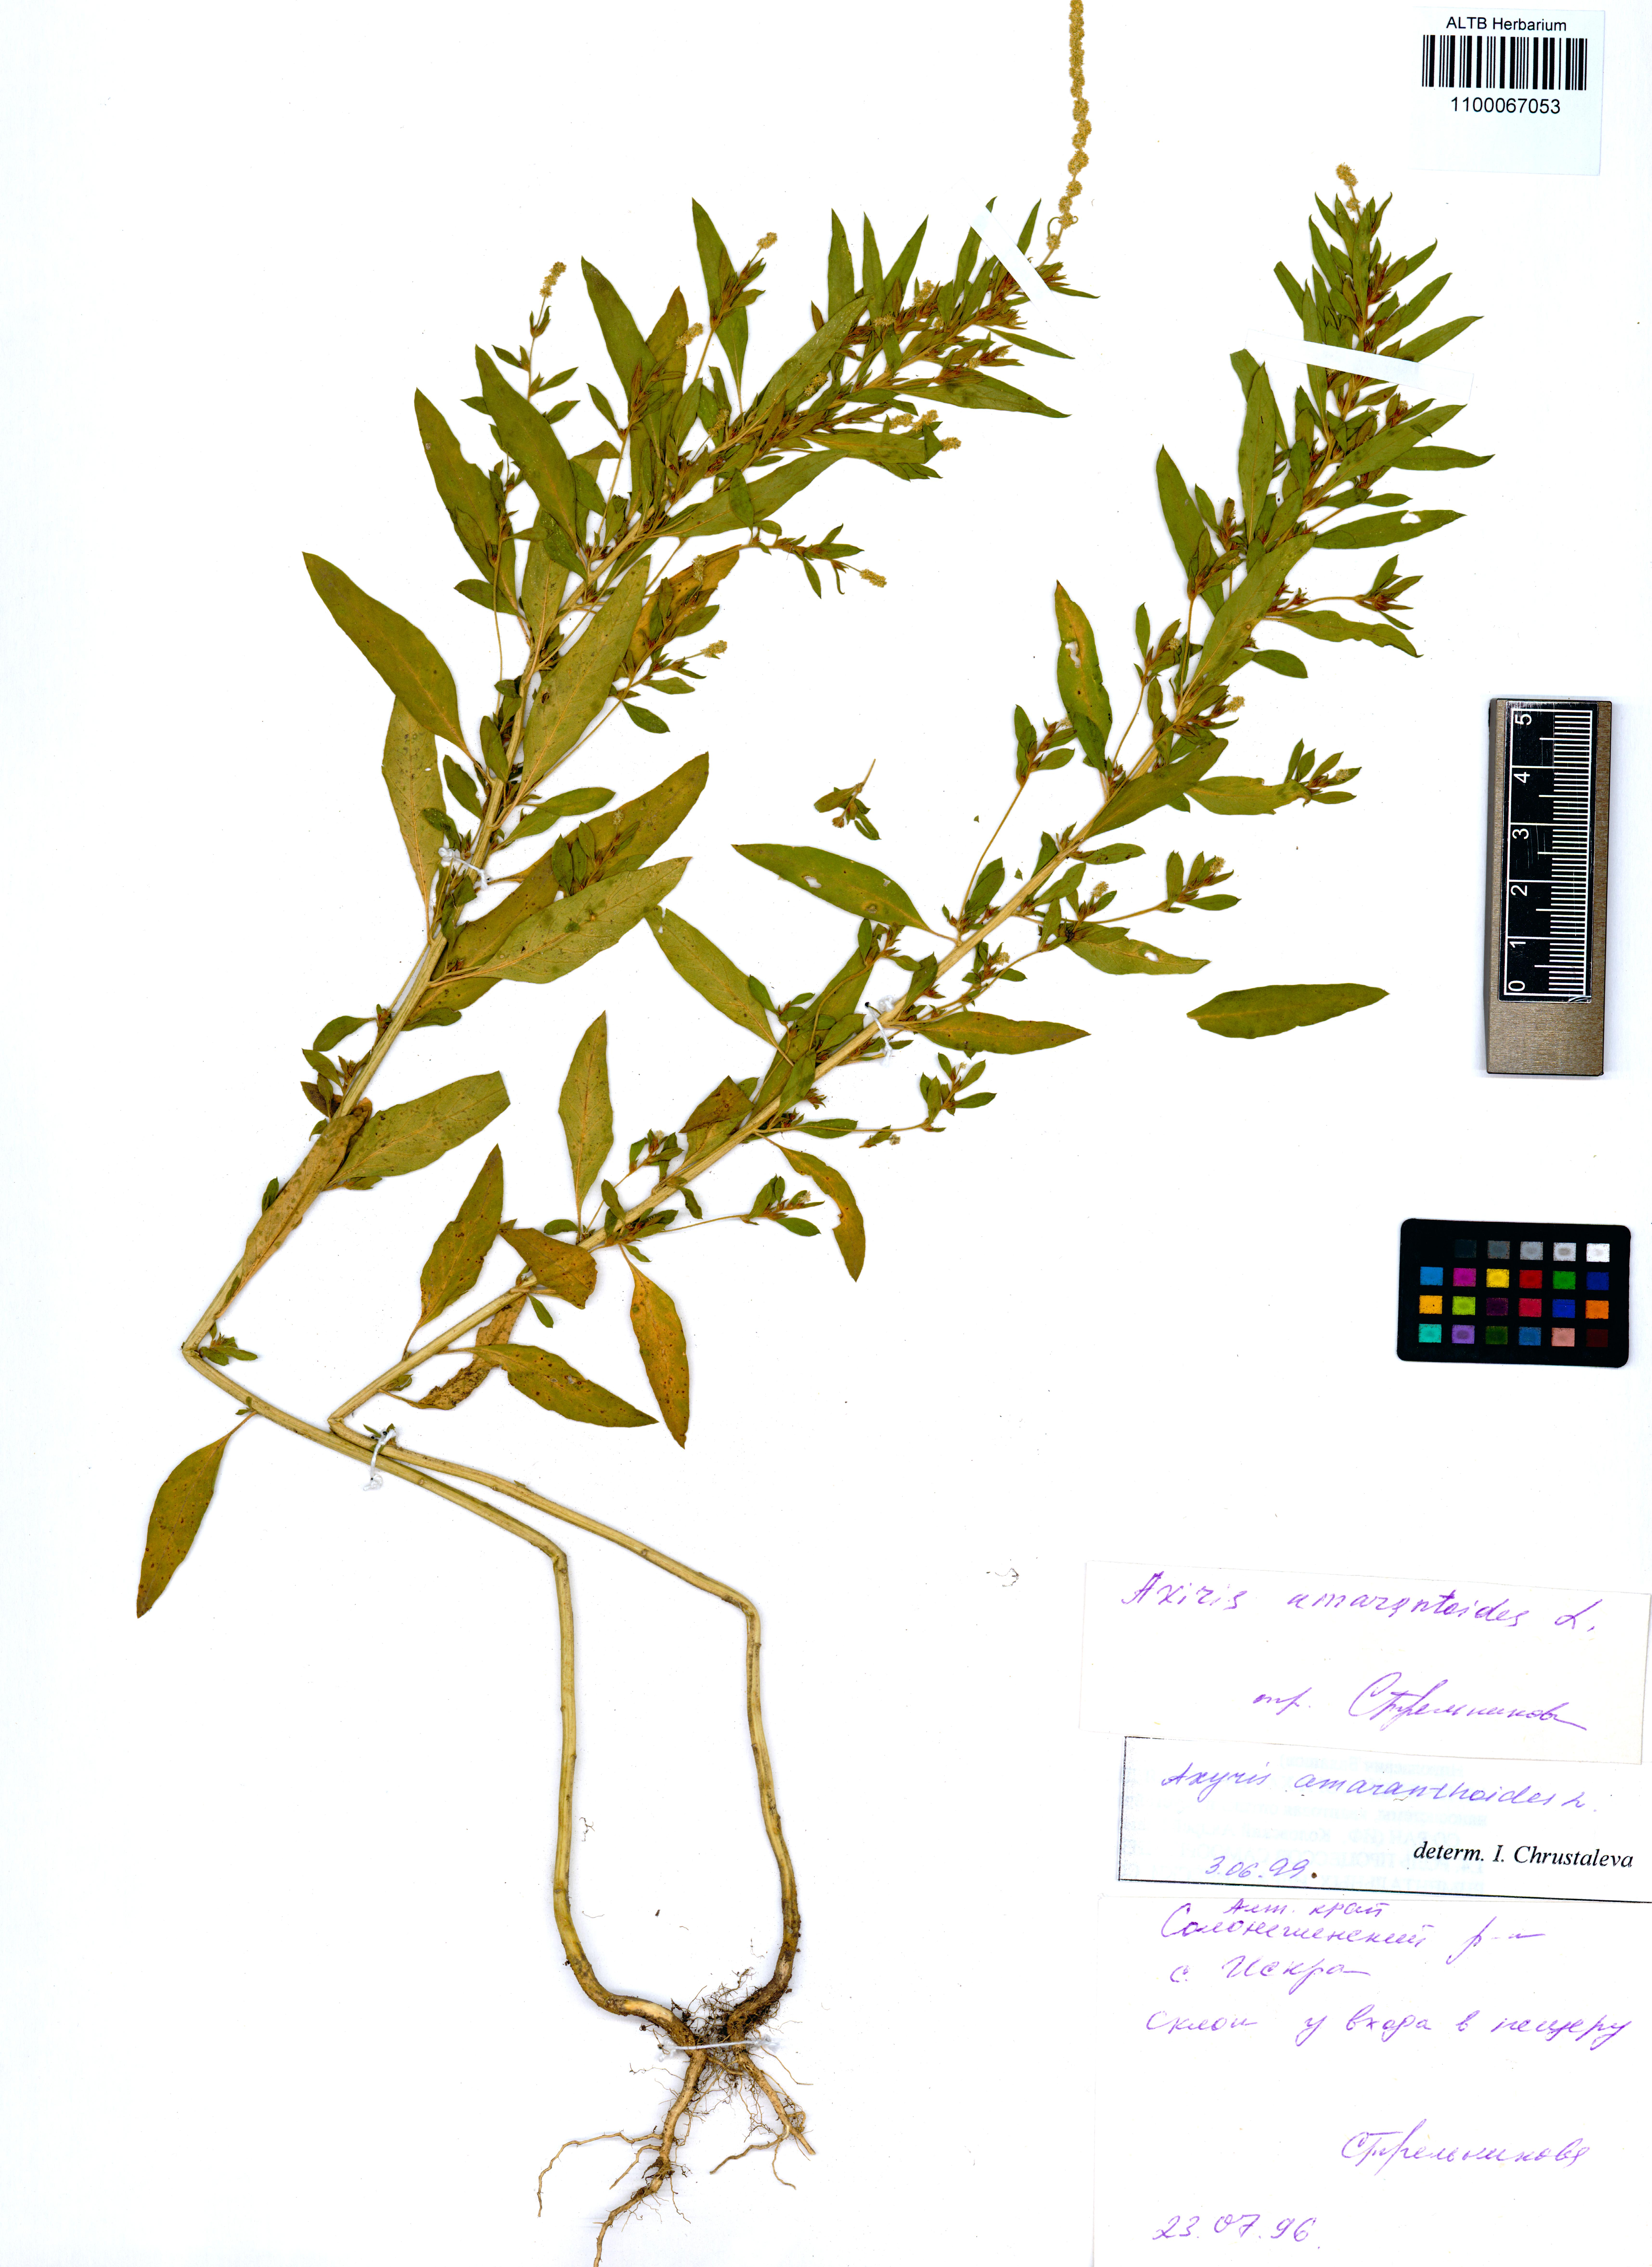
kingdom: Plantae
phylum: Tracheophyta
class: Magnoliopsida
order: Caryophyllales
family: Amaranthaceae
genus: Axyris
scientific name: Axyris amaranthoides
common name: Russian pigweed
